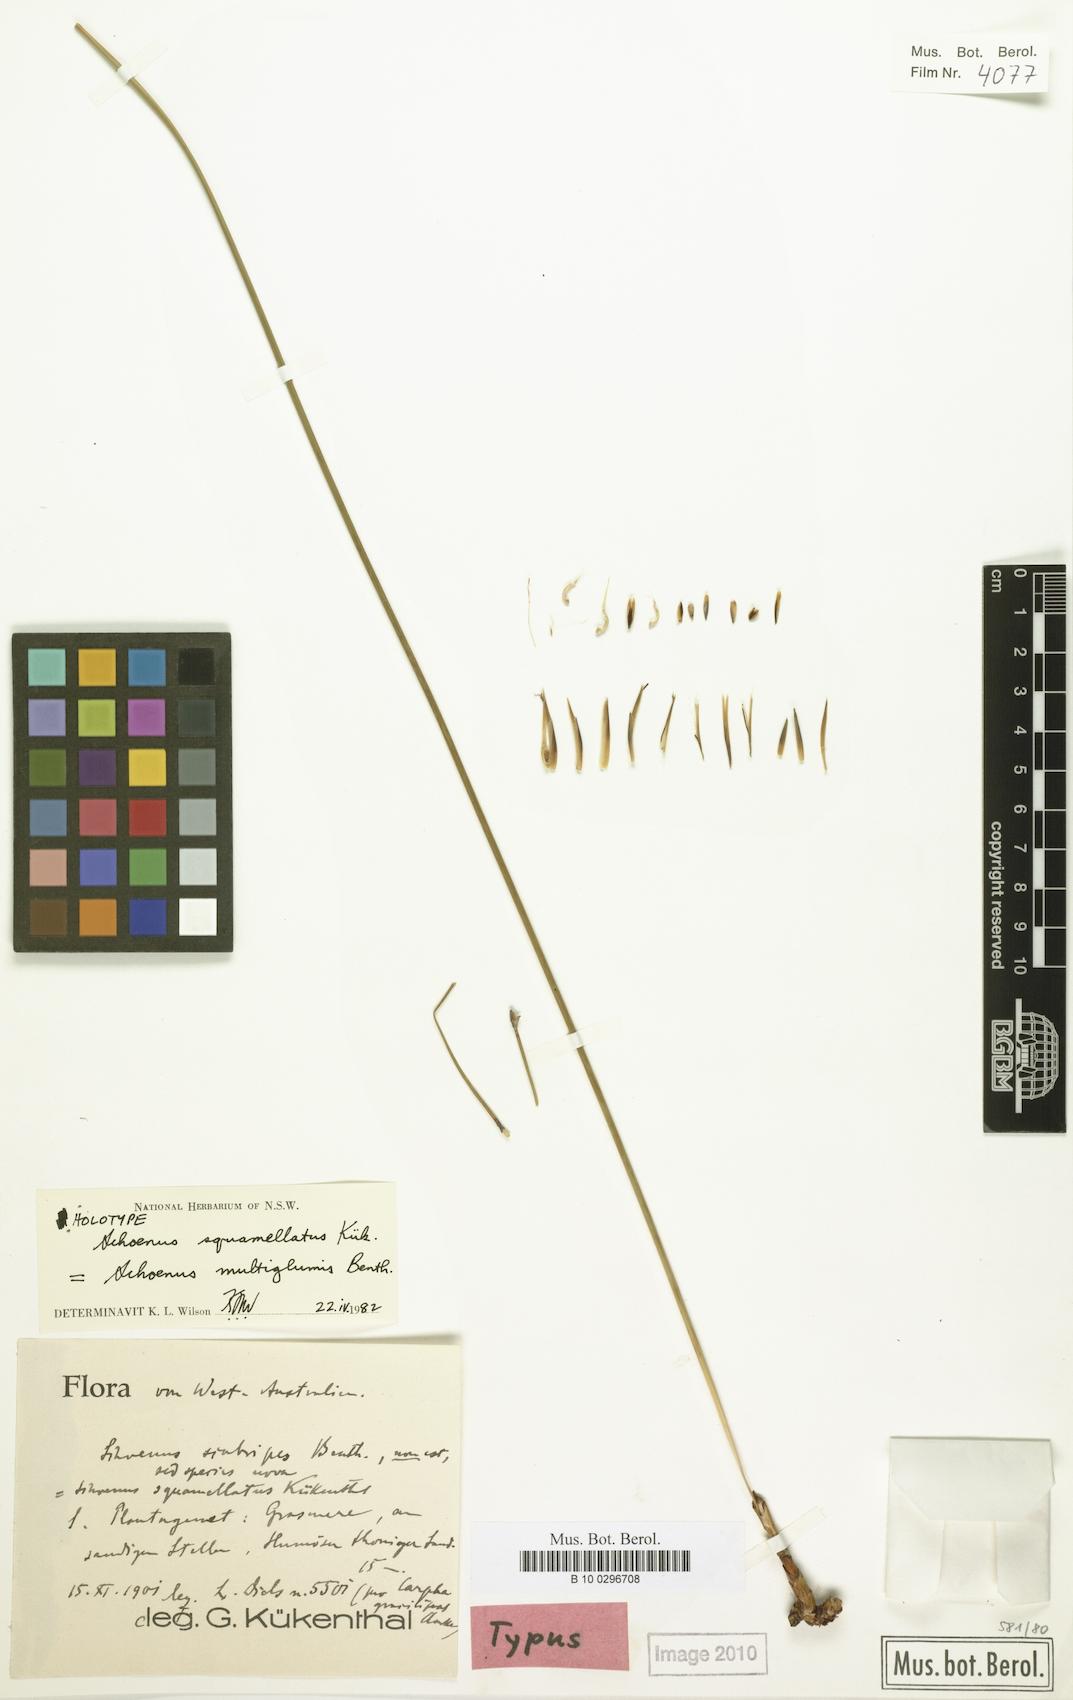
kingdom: Plantae
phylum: Tracheophyta
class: Liliopsida
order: Poales
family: Cyperaceae
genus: Schoenus
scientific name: Schoenus squamellatus
